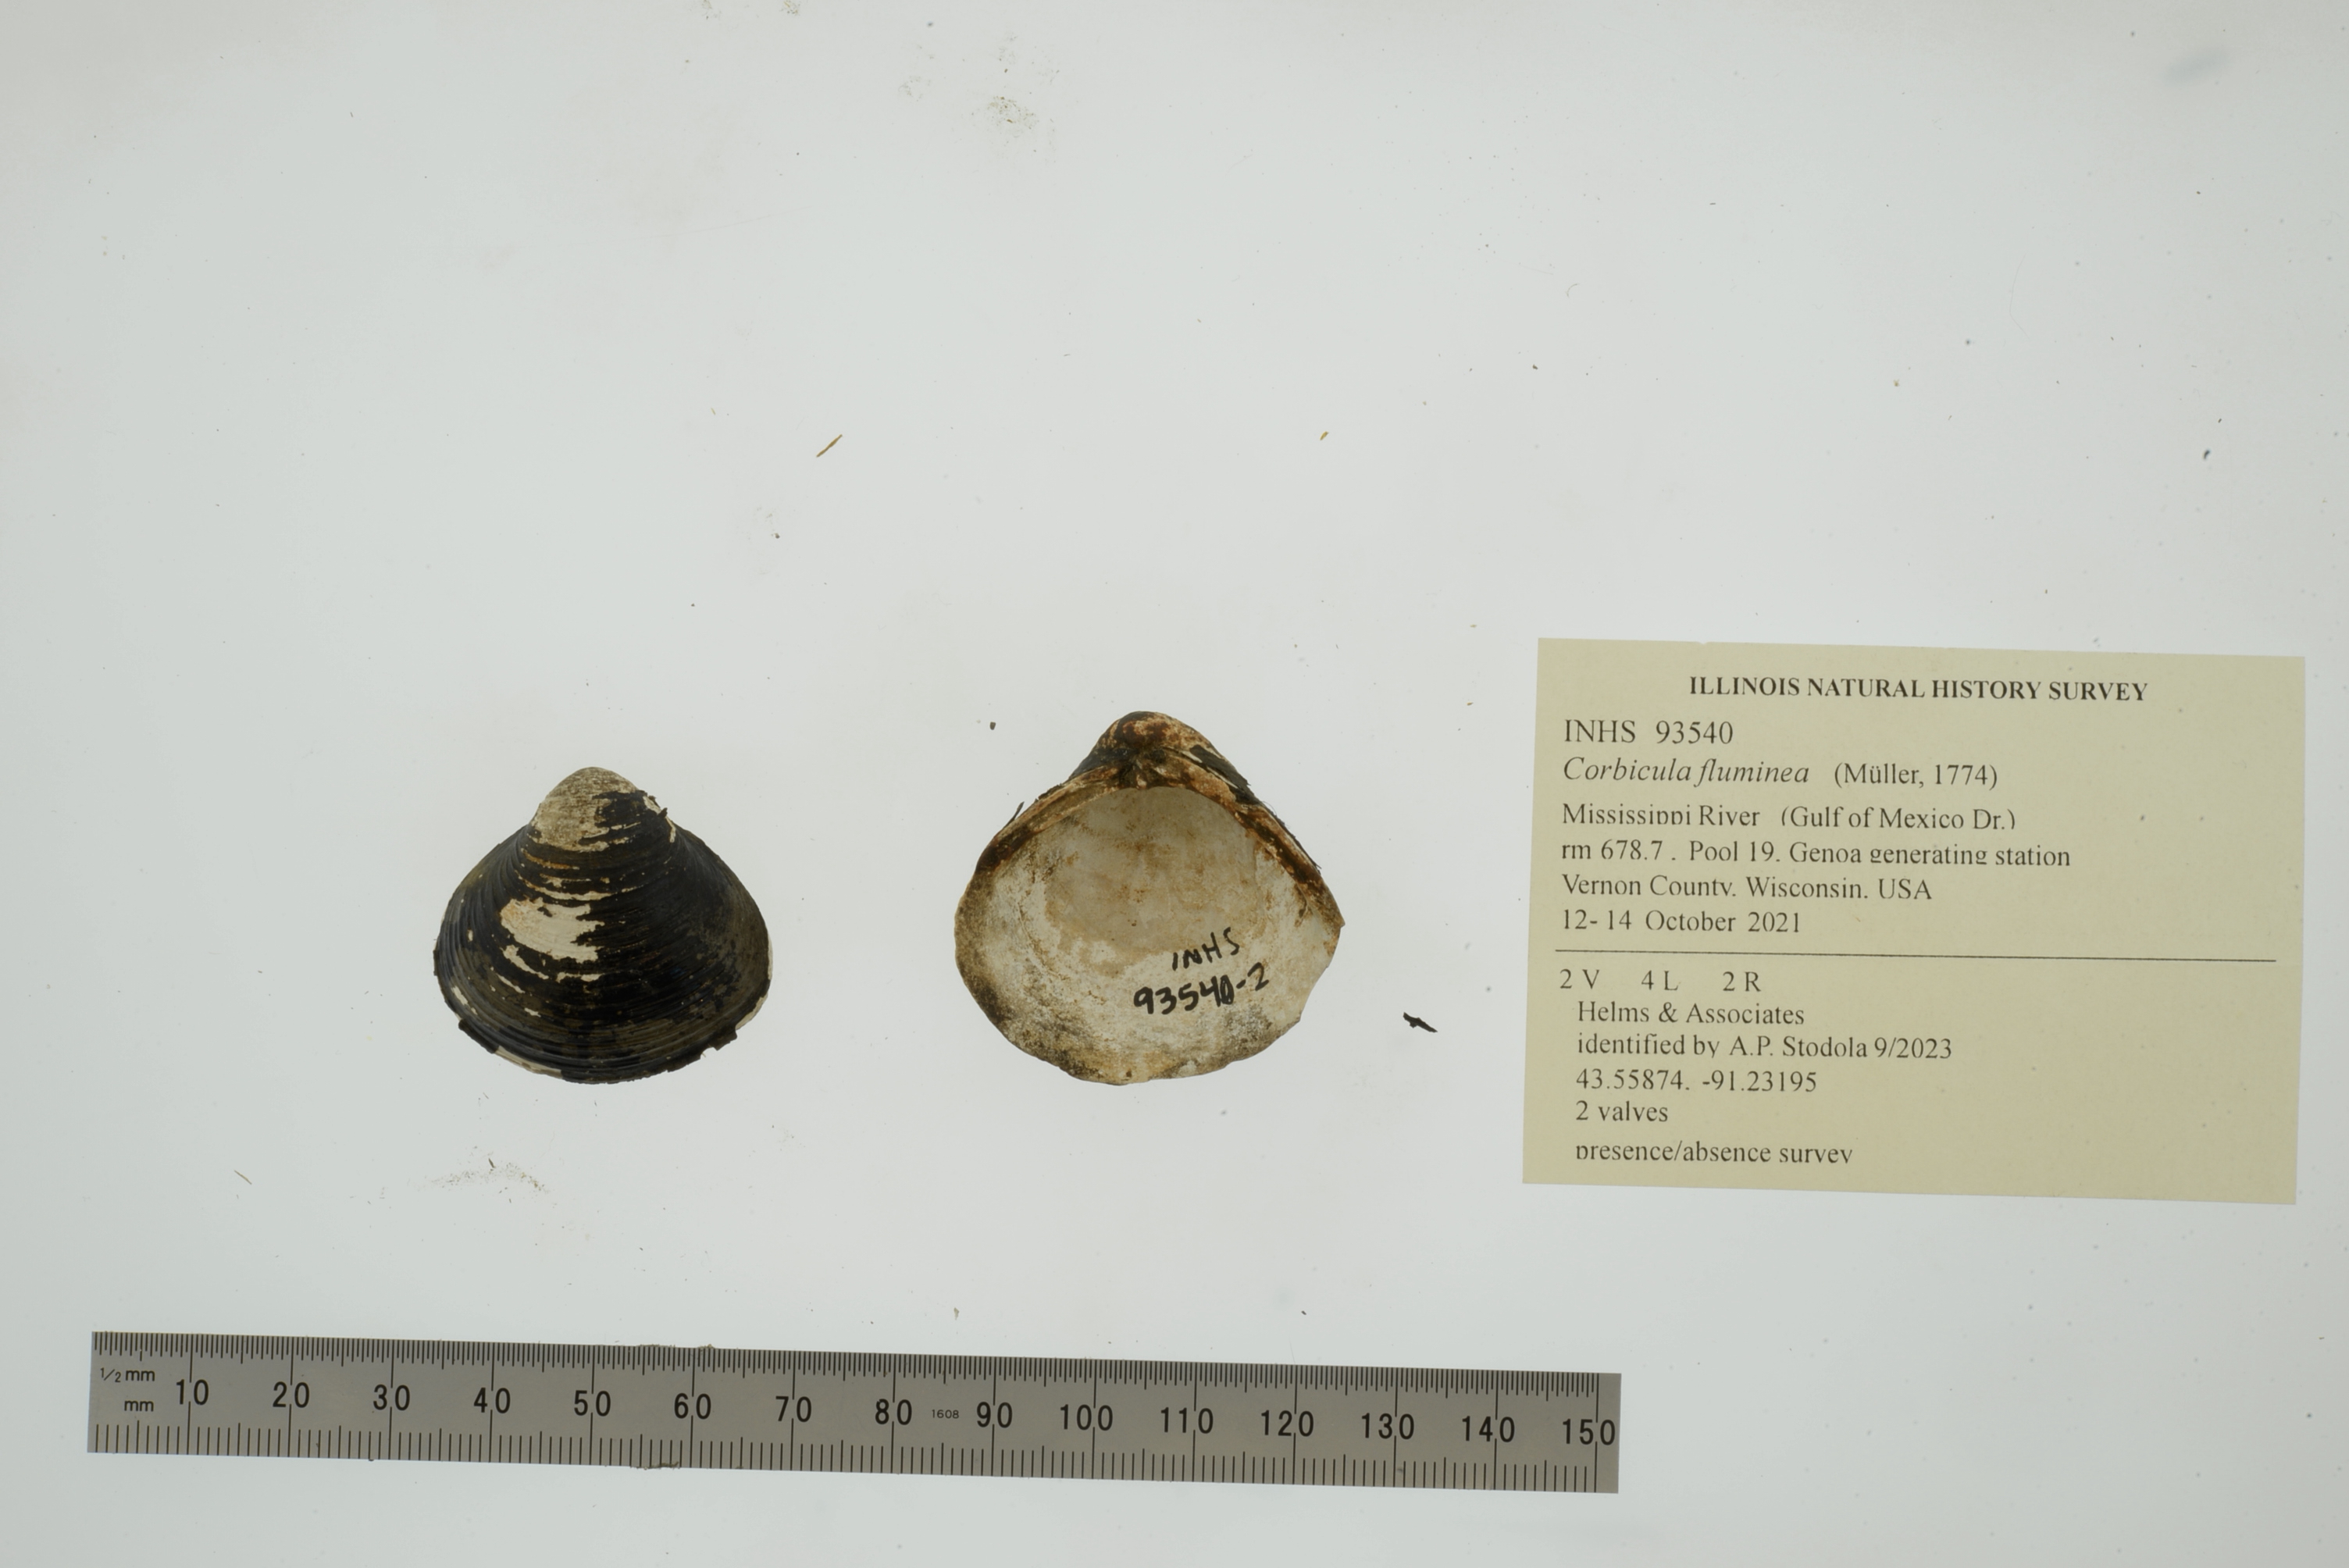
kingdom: Animalia
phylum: Mollusca
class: Bivalvia
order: Venerida
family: Cyrenidae
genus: Corbicula
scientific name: Corbicula fluminea
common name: Asian clam
